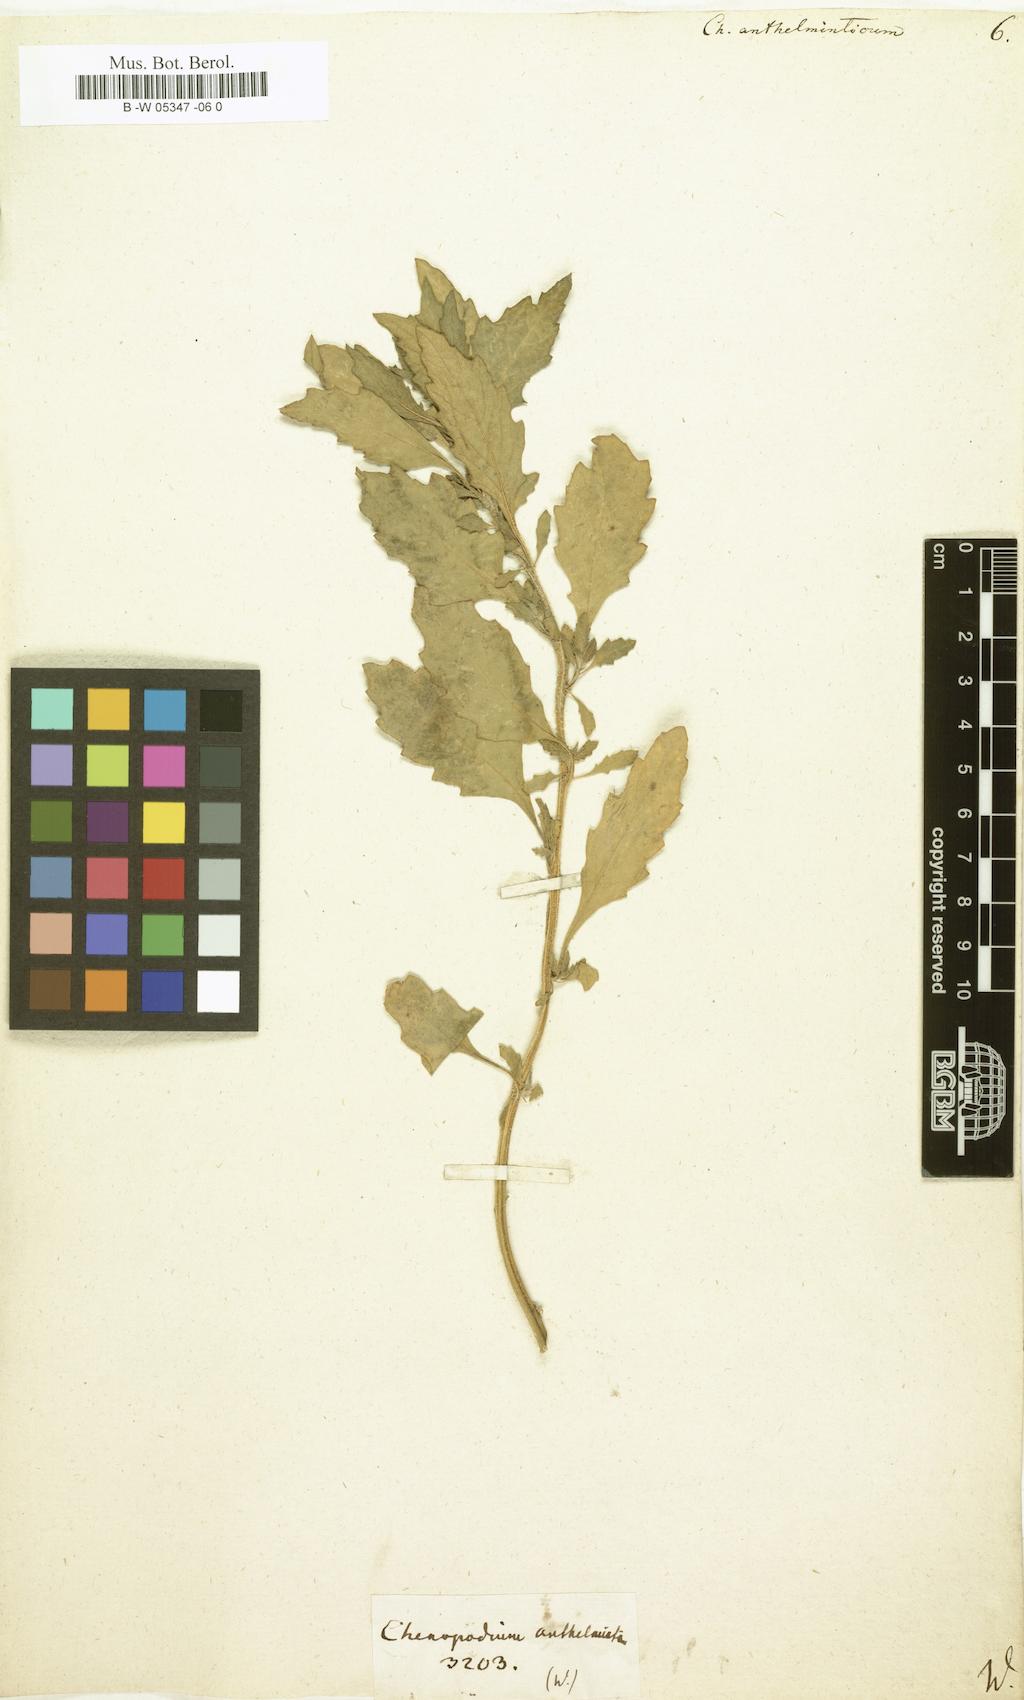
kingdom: Plantae
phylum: Tracheophyta
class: Magnoliopsida
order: Caryophyllales
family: Amaranthaceae
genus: Dysphania
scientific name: Dysphania anthelmintica
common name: Wormseed
